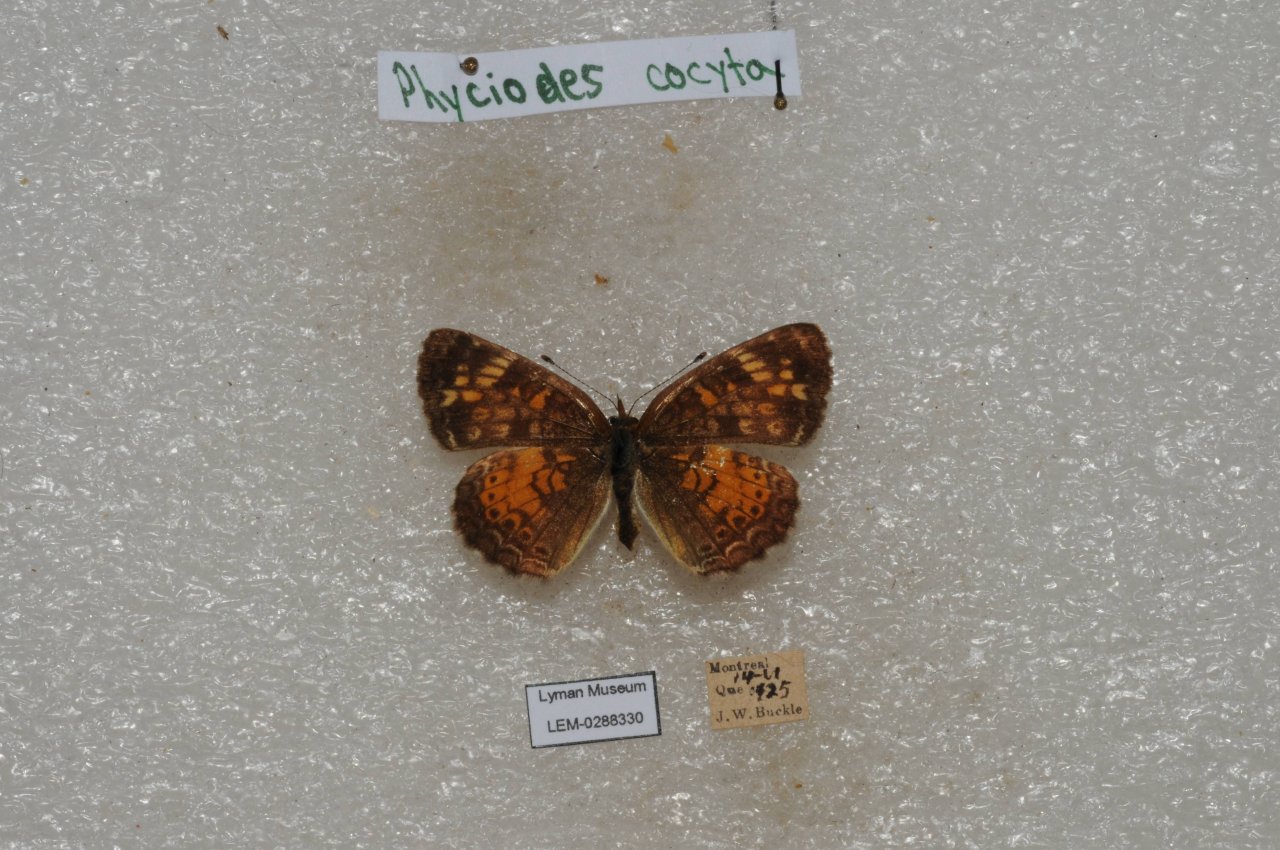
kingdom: Animalia
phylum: Arthropoda
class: Insecta
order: Lepidoptera
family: Nymphalidae
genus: Phyciodes
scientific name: Phyciodes tharos
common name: Northern Crescent
